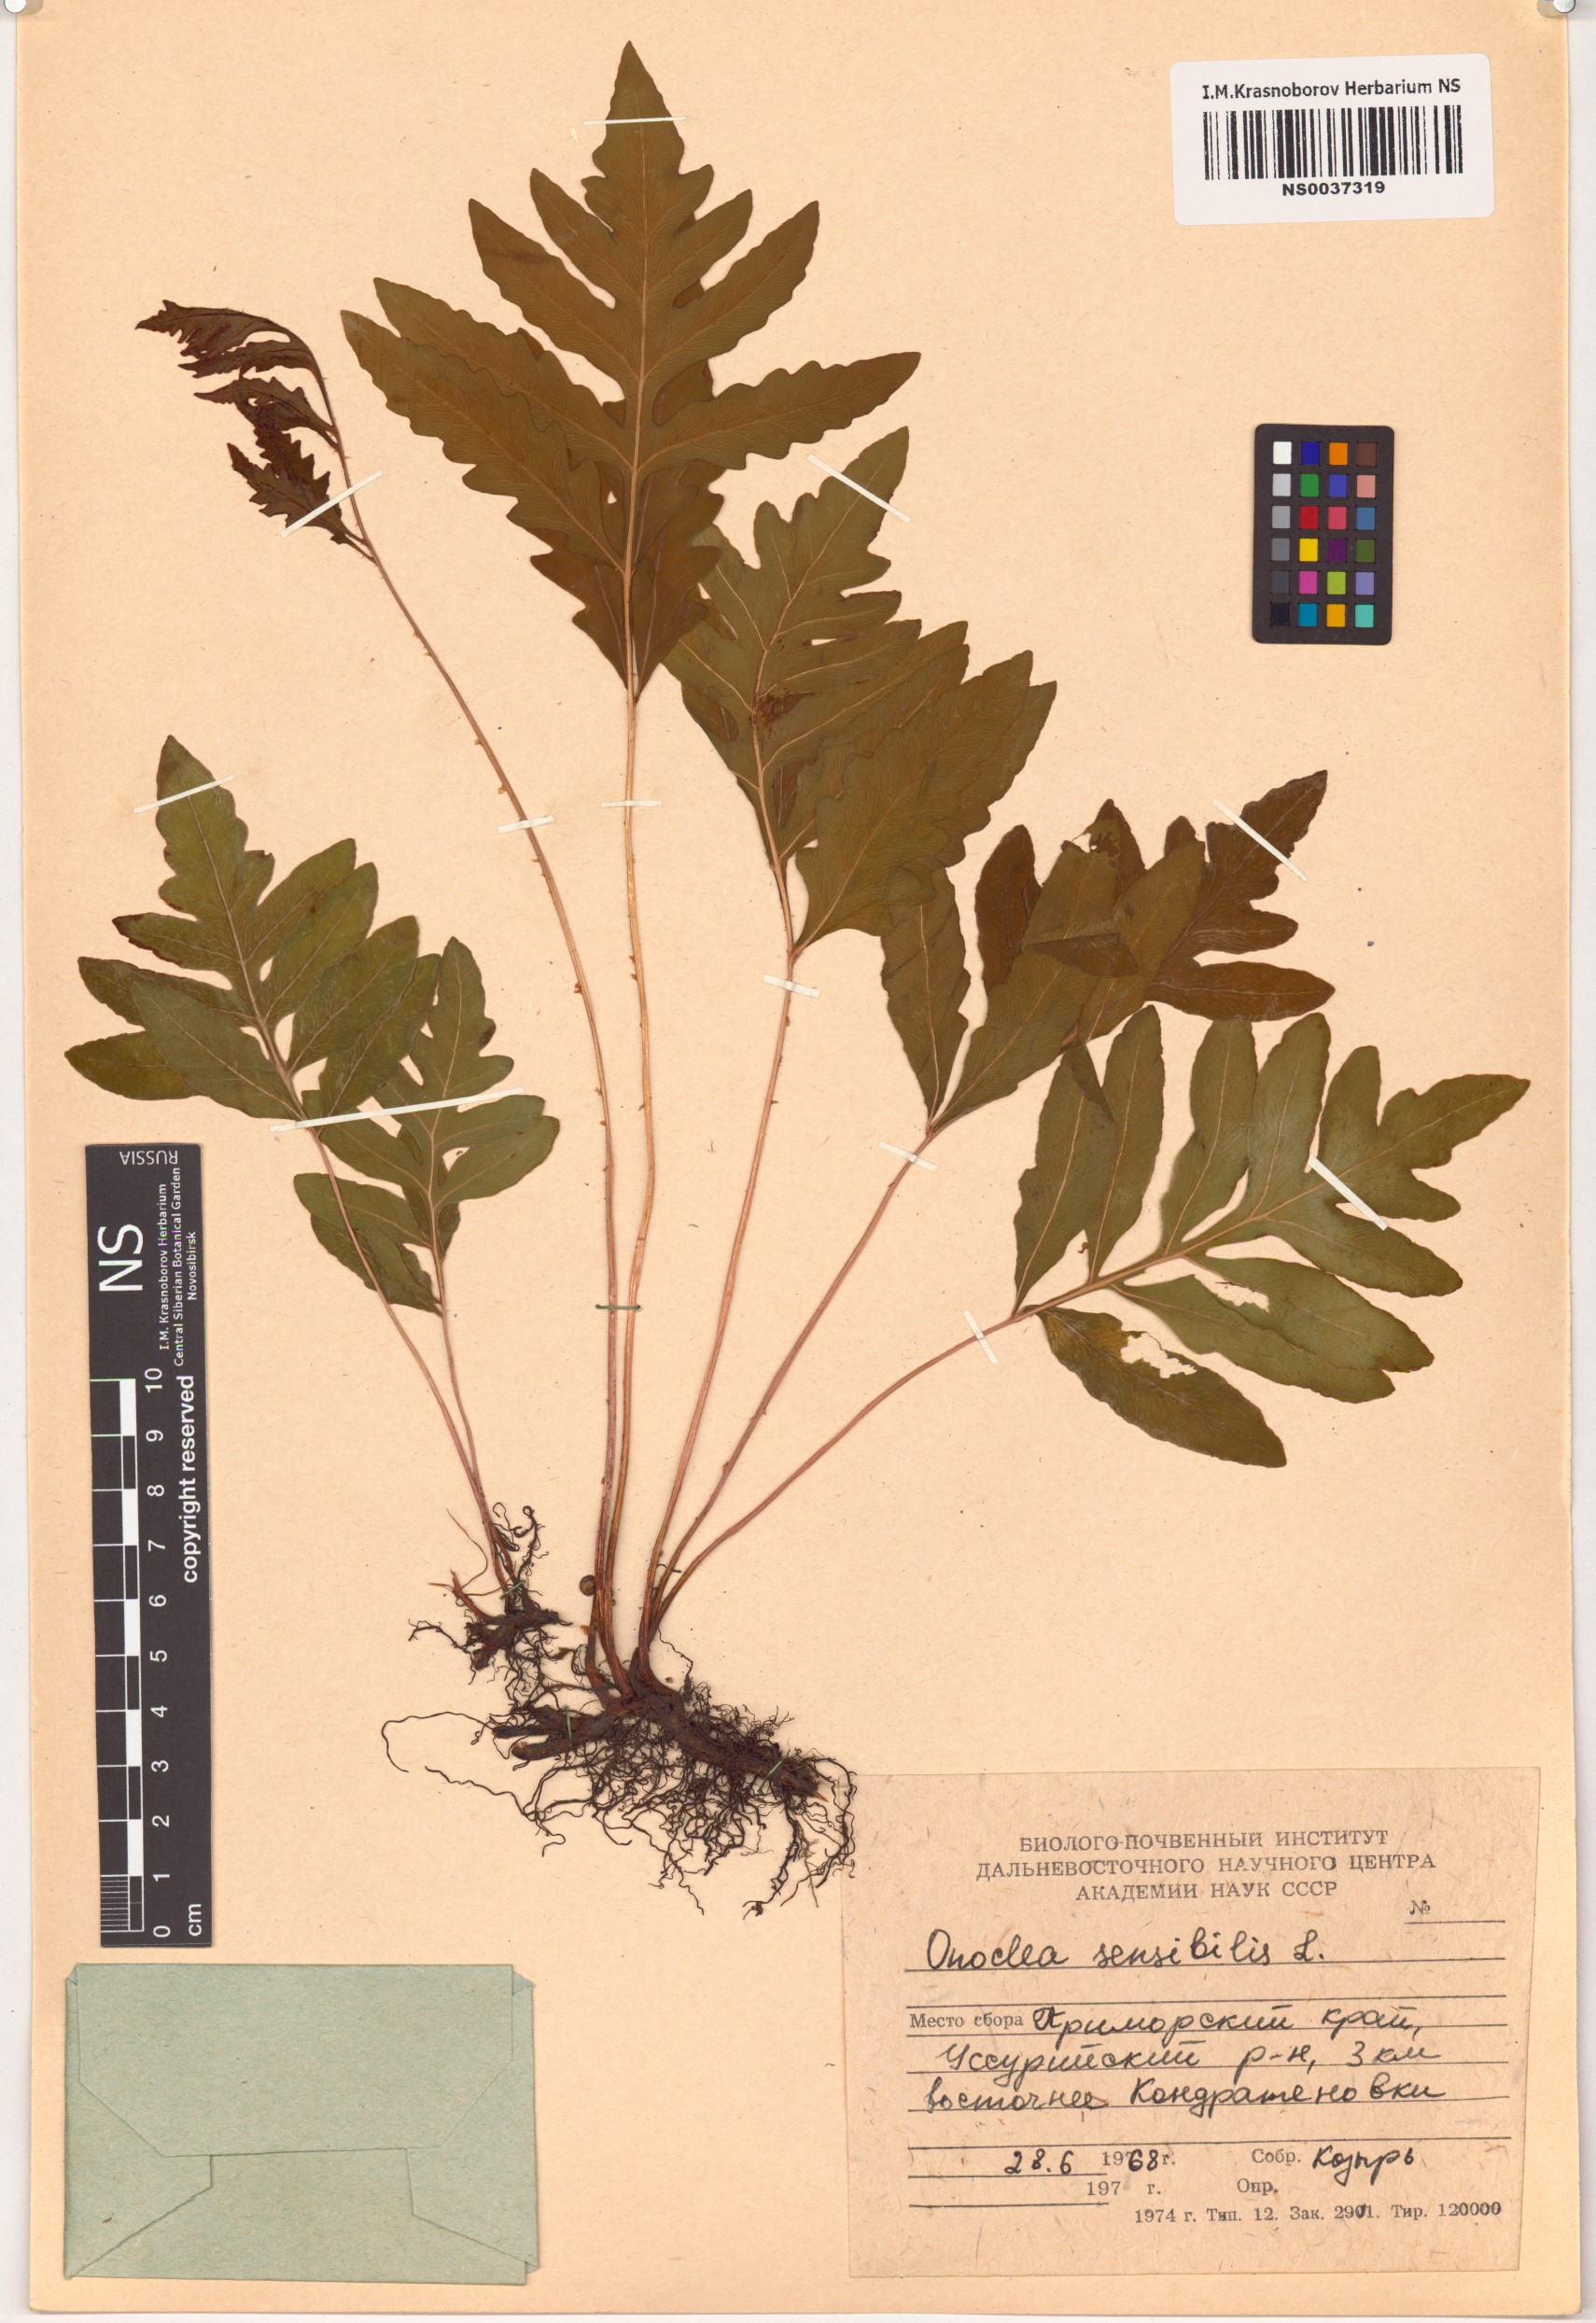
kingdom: Plantae
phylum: Tracheophyta
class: Polypodiopsida
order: Polypodiales
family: Onocleaceae
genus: Onoclea
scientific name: Onoclea sensibilis
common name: Sensitive fern
